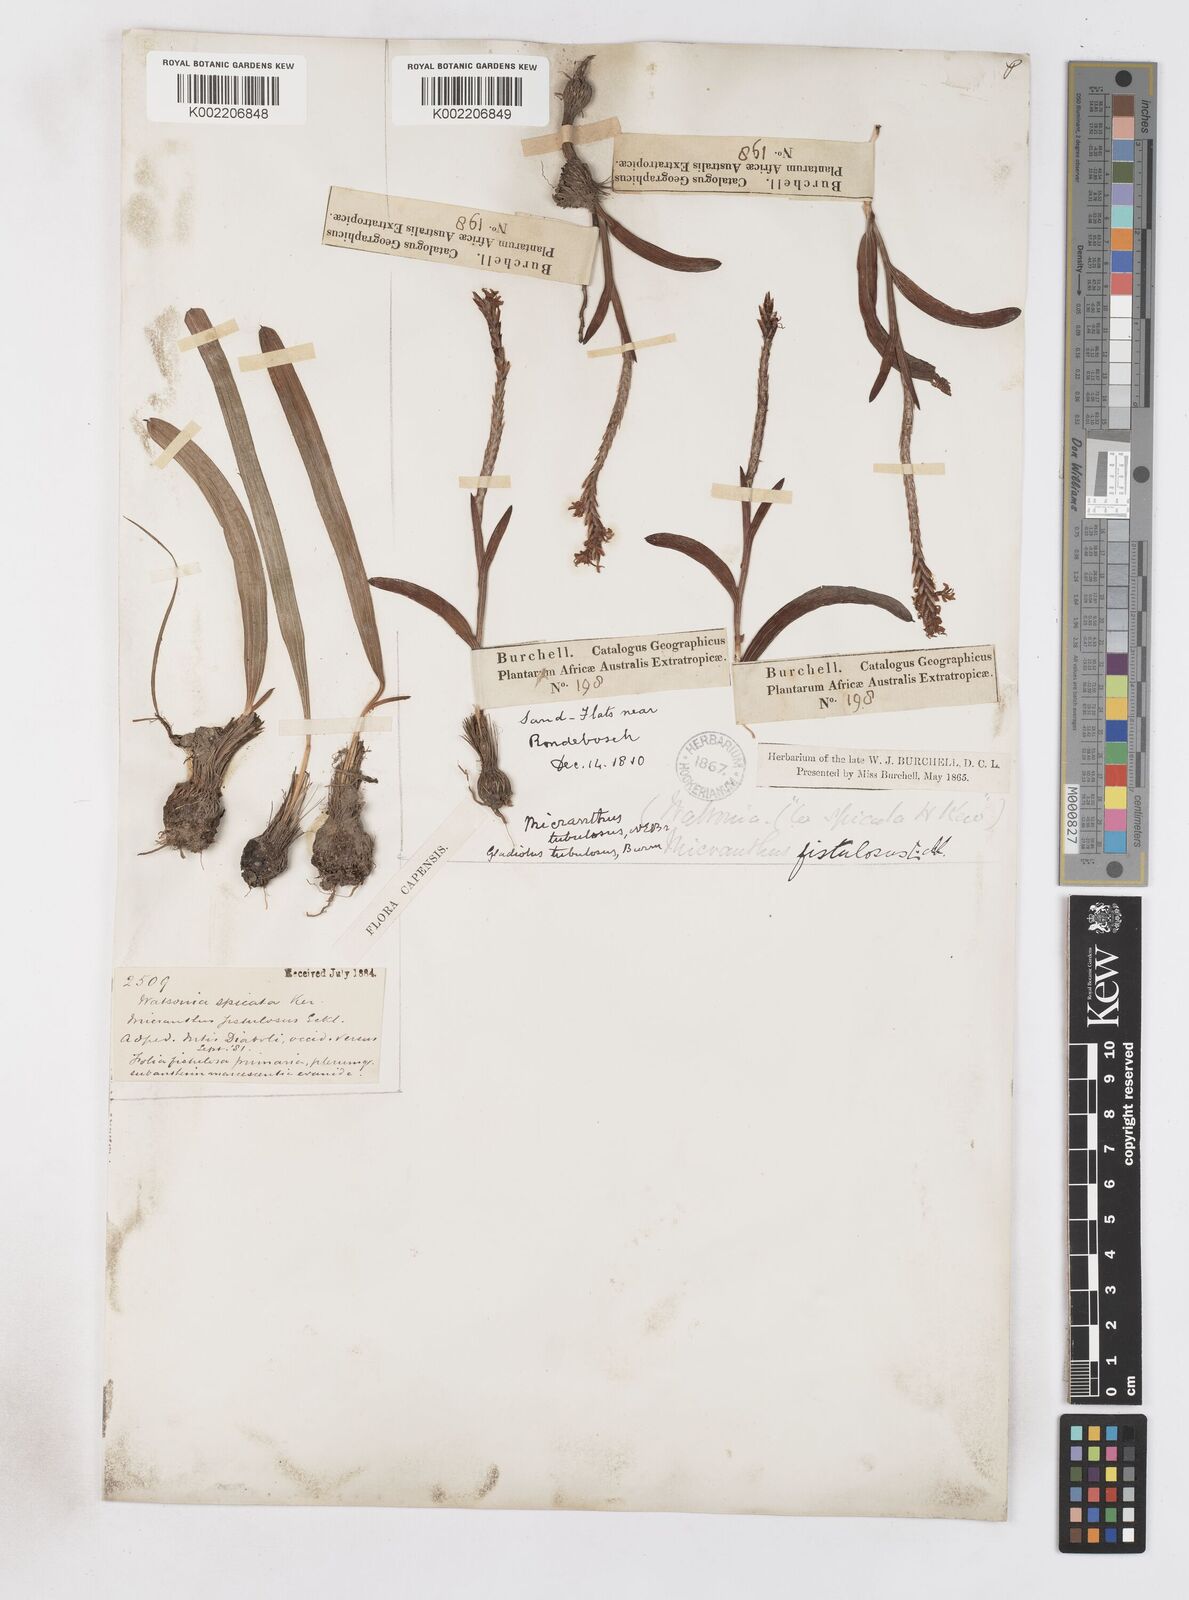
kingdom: Plantae
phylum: Tracheophyta
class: Liliopsida
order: Asparagales
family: Iridaceae
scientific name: Iridaceae
